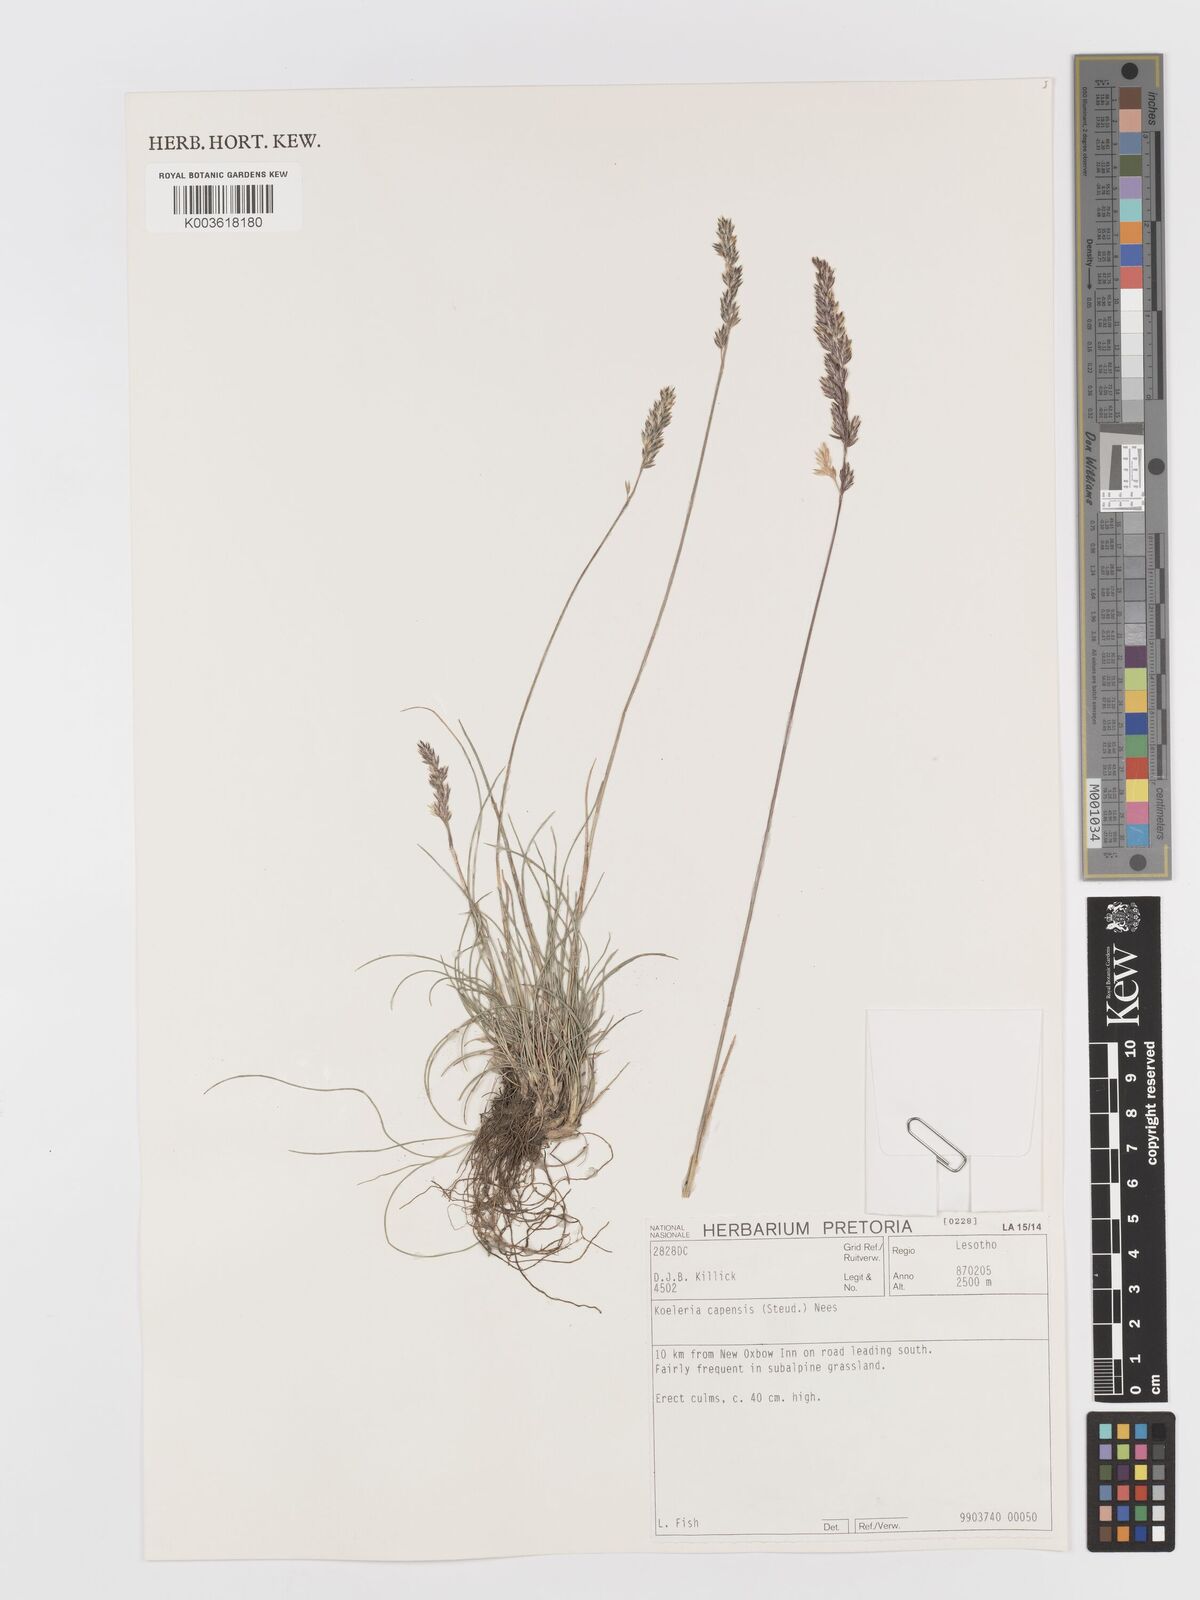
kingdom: Plantae
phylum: Tracheophyta
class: Liliopsida
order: Poales
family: Poaceae
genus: Koeleria
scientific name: Koeleria capensis
